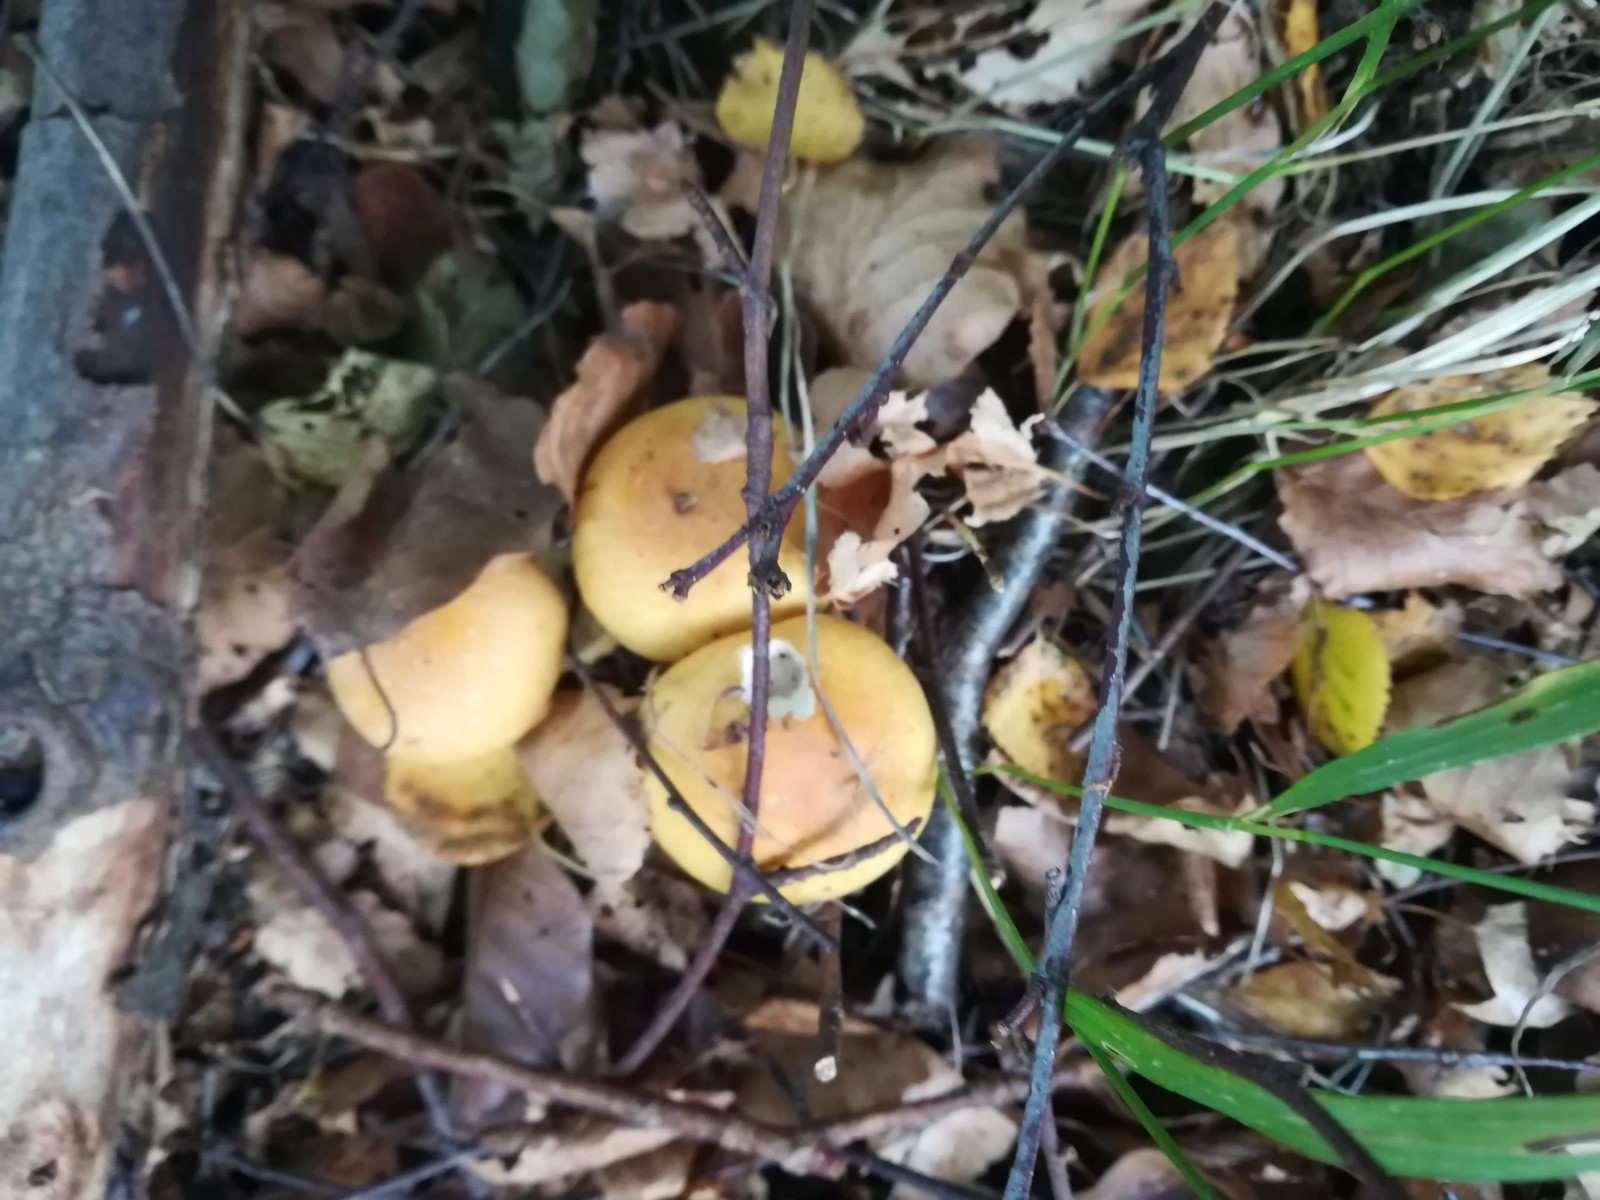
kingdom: Fungi
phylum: Basidiomycota
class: Agaricomycetes
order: Agaricales
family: Cortinariaceae
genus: Phlegmacium
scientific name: Phlegmacium triumphans
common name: gulbæltet slørhat
